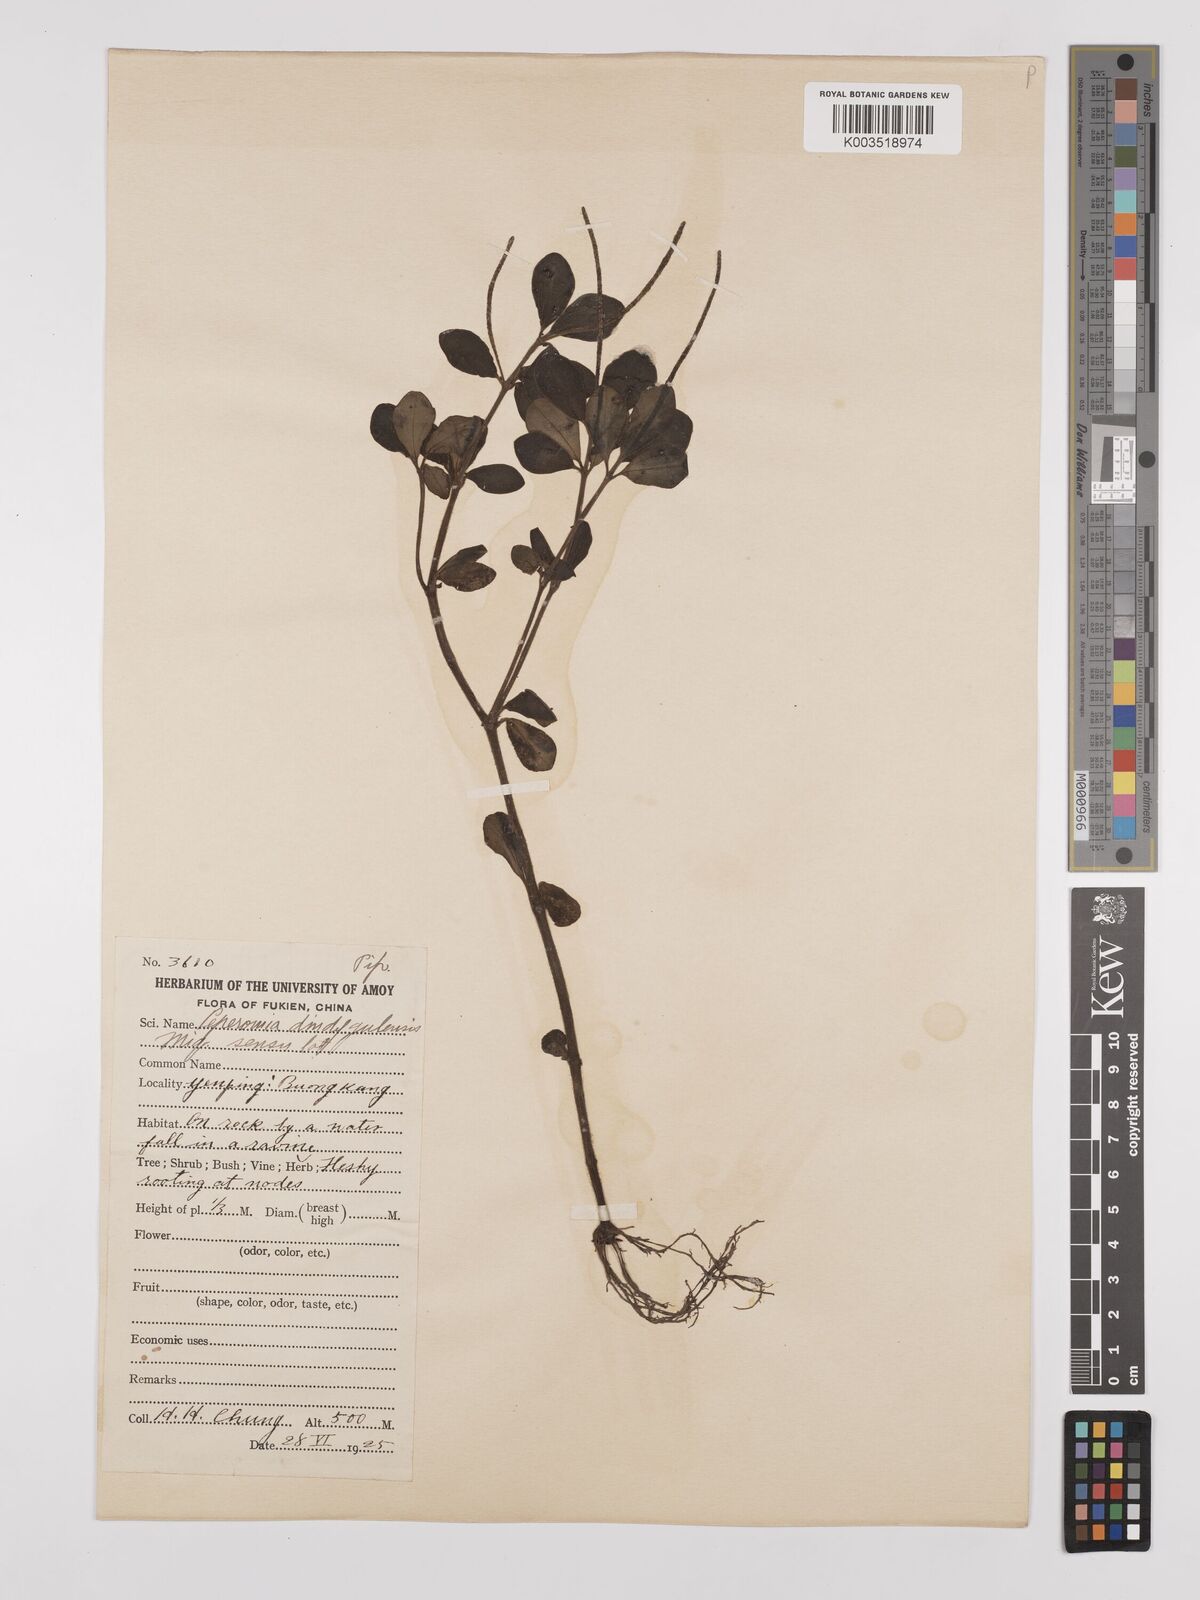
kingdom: Plantae
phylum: Tracheophyta
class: Magnoliopsida
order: Piperales
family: Piperaceae
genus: Peperomia
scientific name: Peperomia leptostachya
